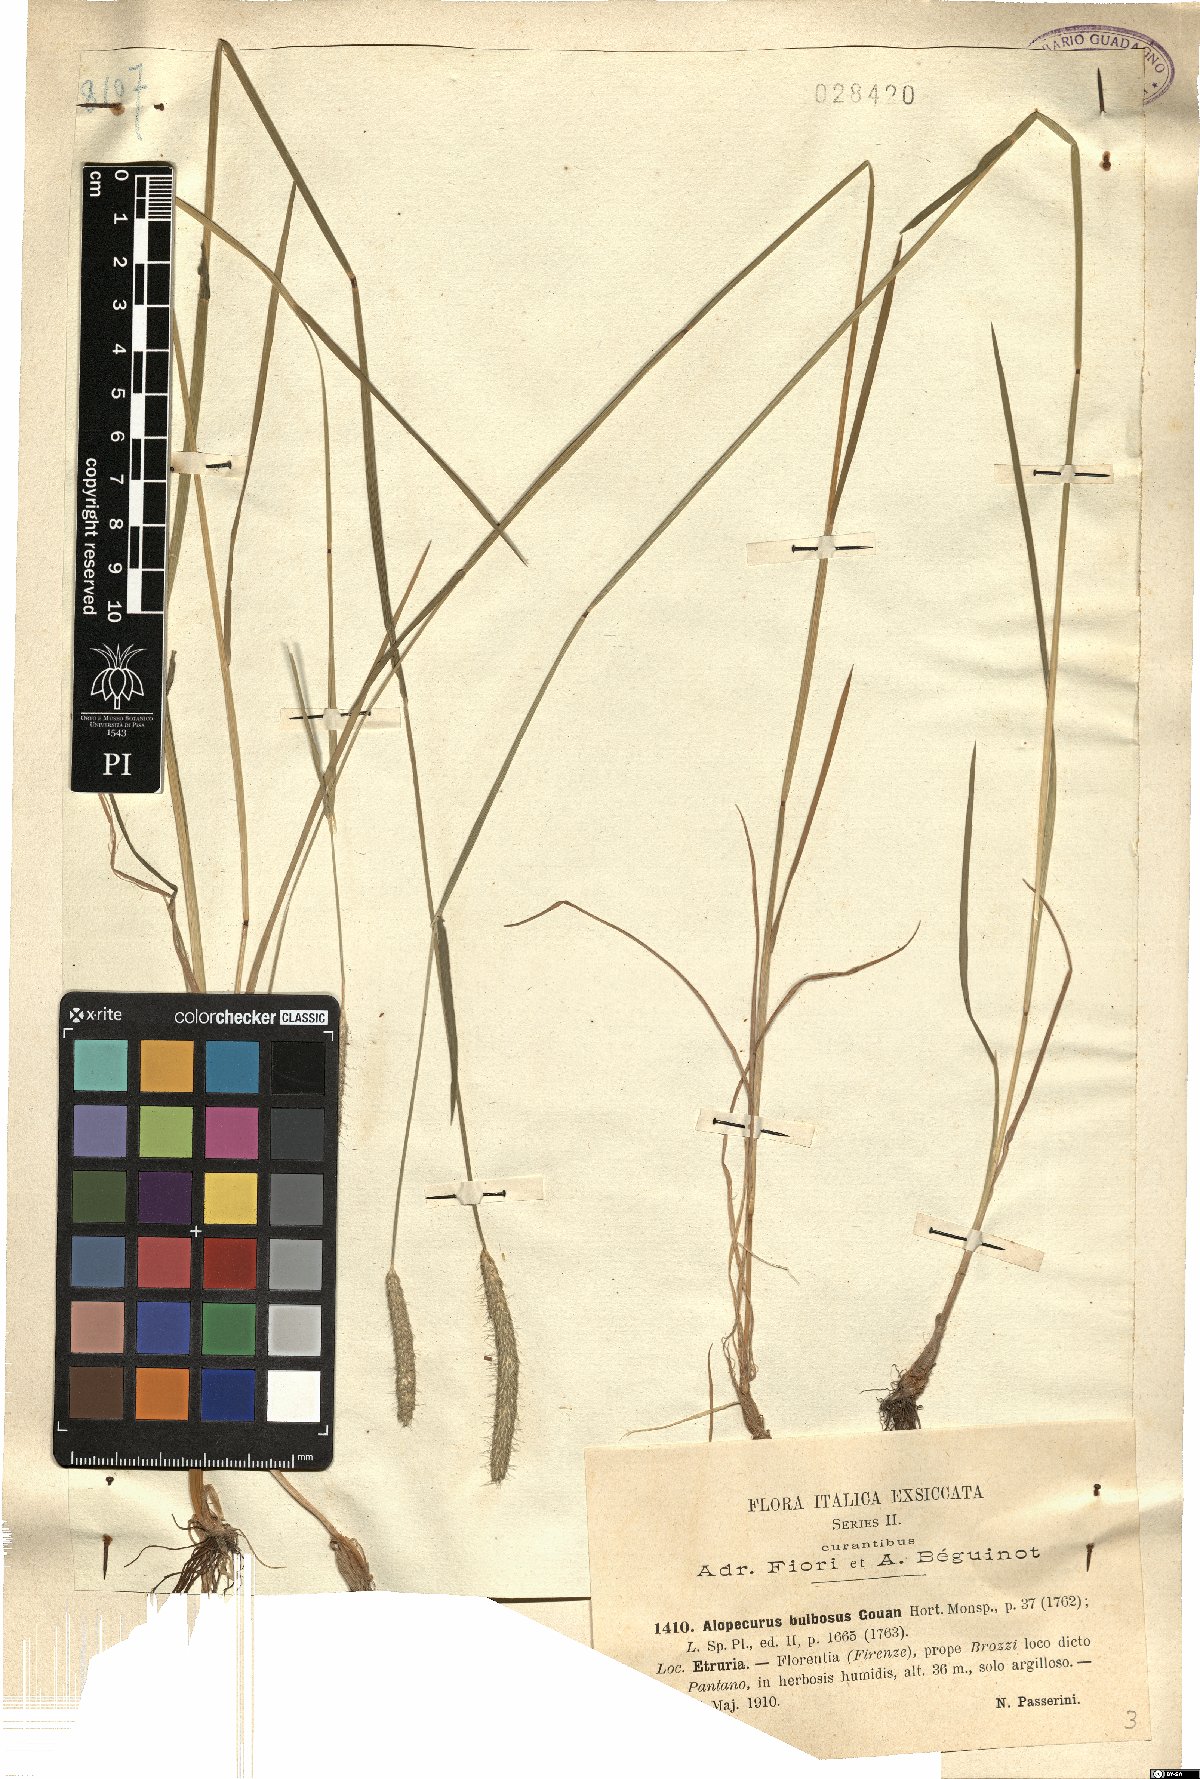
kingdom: Plantae
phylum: Tracheophyta
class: Liliopsida
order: Poales
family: Poaceae
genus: Alopecurus
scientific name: Alopecurus bulbosus
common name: Bulbous foxtail
